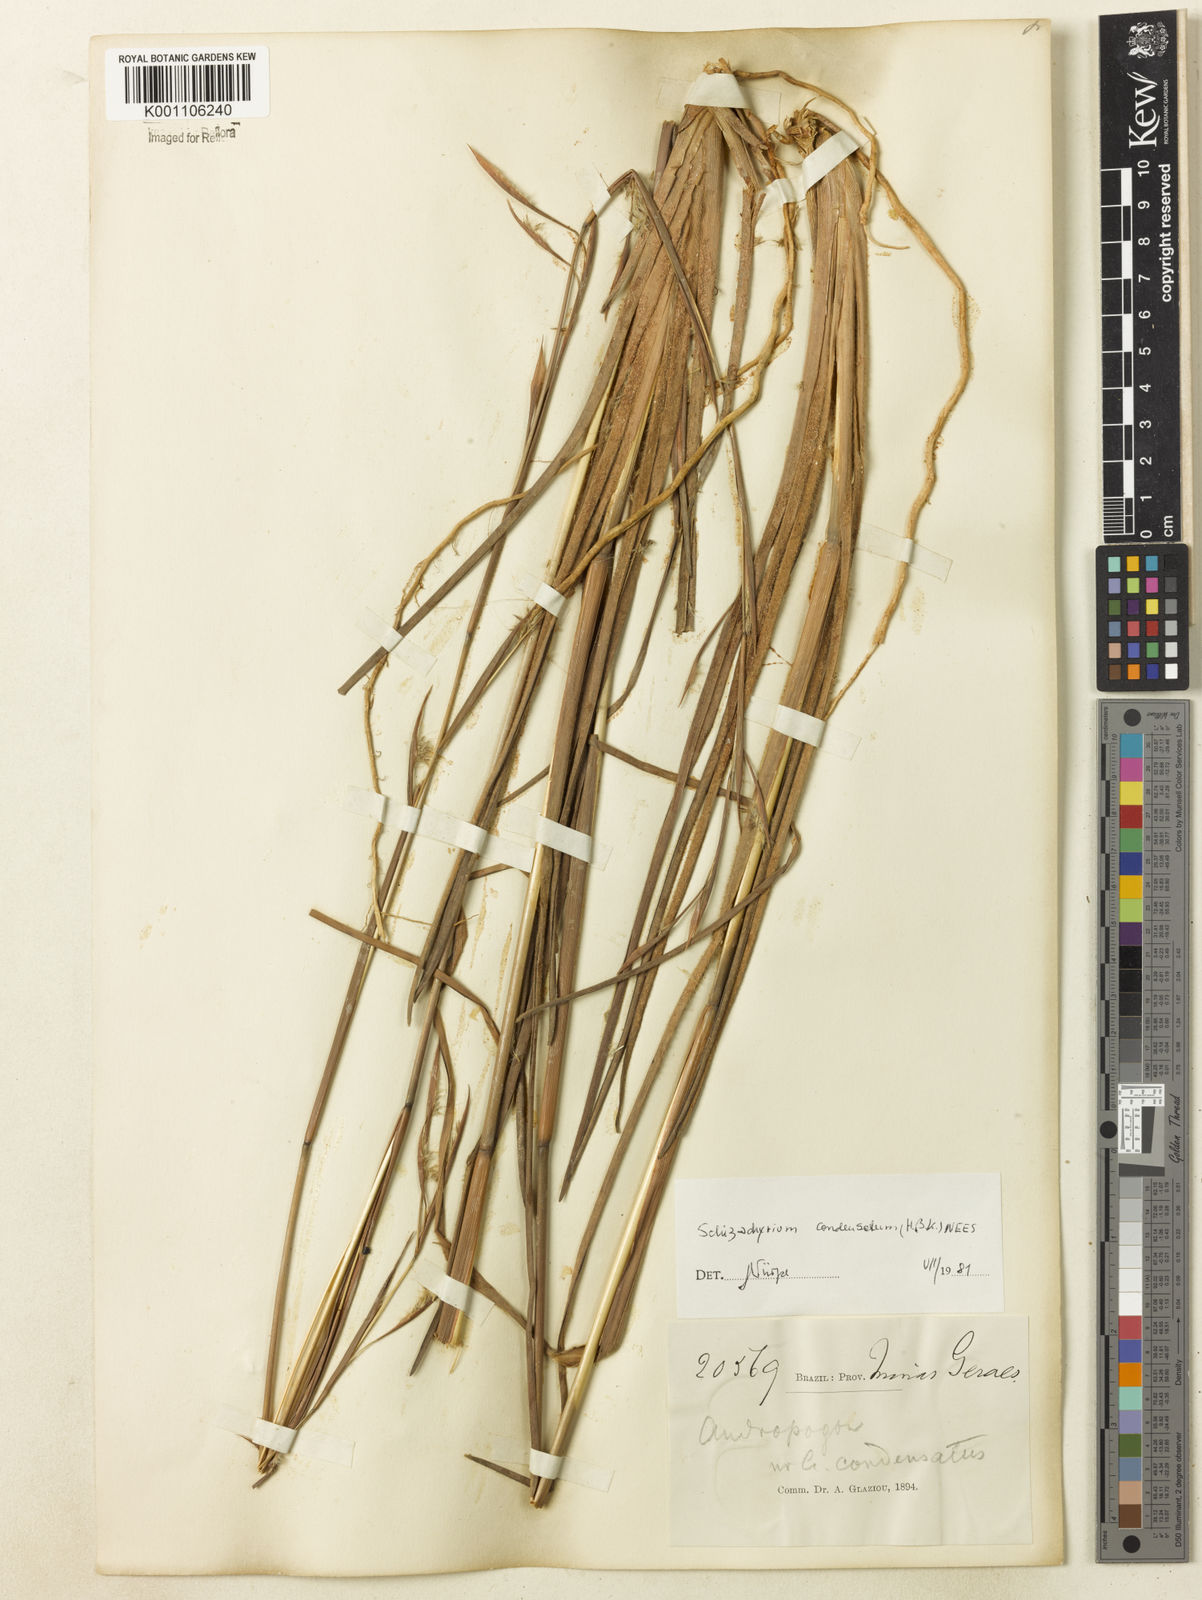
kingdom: Plantae
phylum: Tracheophyta
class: Liliopsida
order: Poales
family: Poaceae
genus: Andropogon
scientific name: Andropogon
